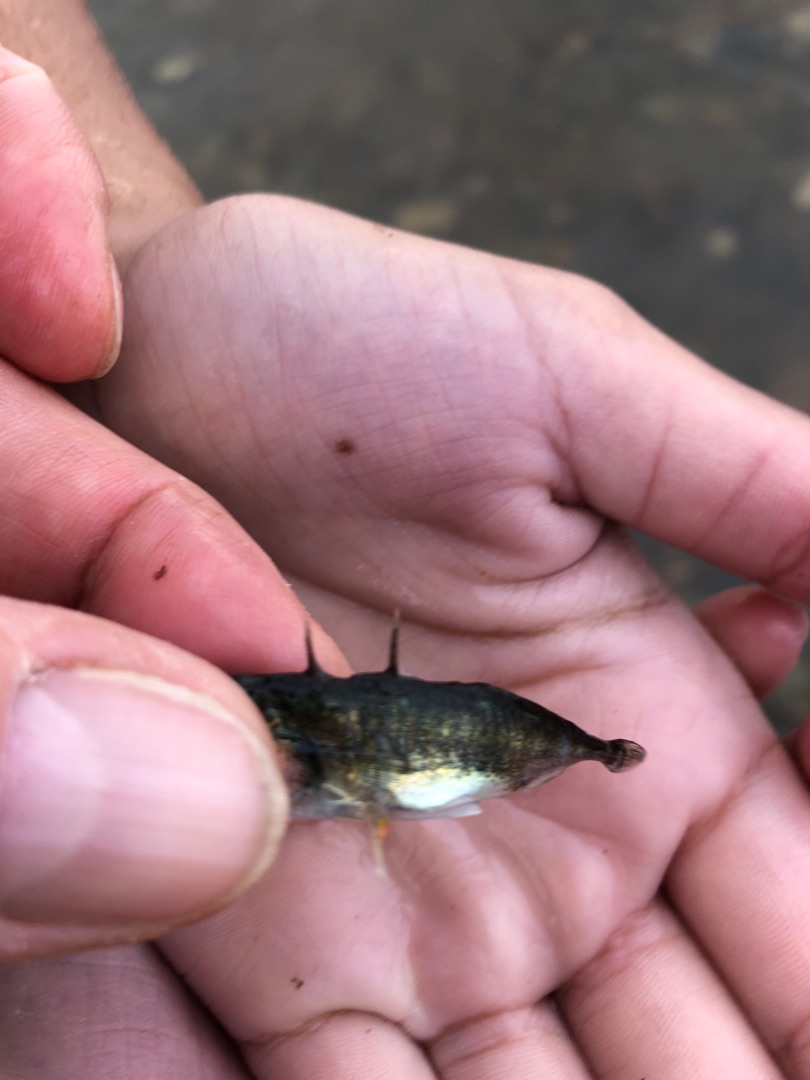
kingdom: Animalia
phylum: Chordata
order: Gasterosteiformes
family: Gasterosteidae
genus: Gasterosteus
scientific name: Gasterosteus aculeatus
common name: Trepigget hundestejle
